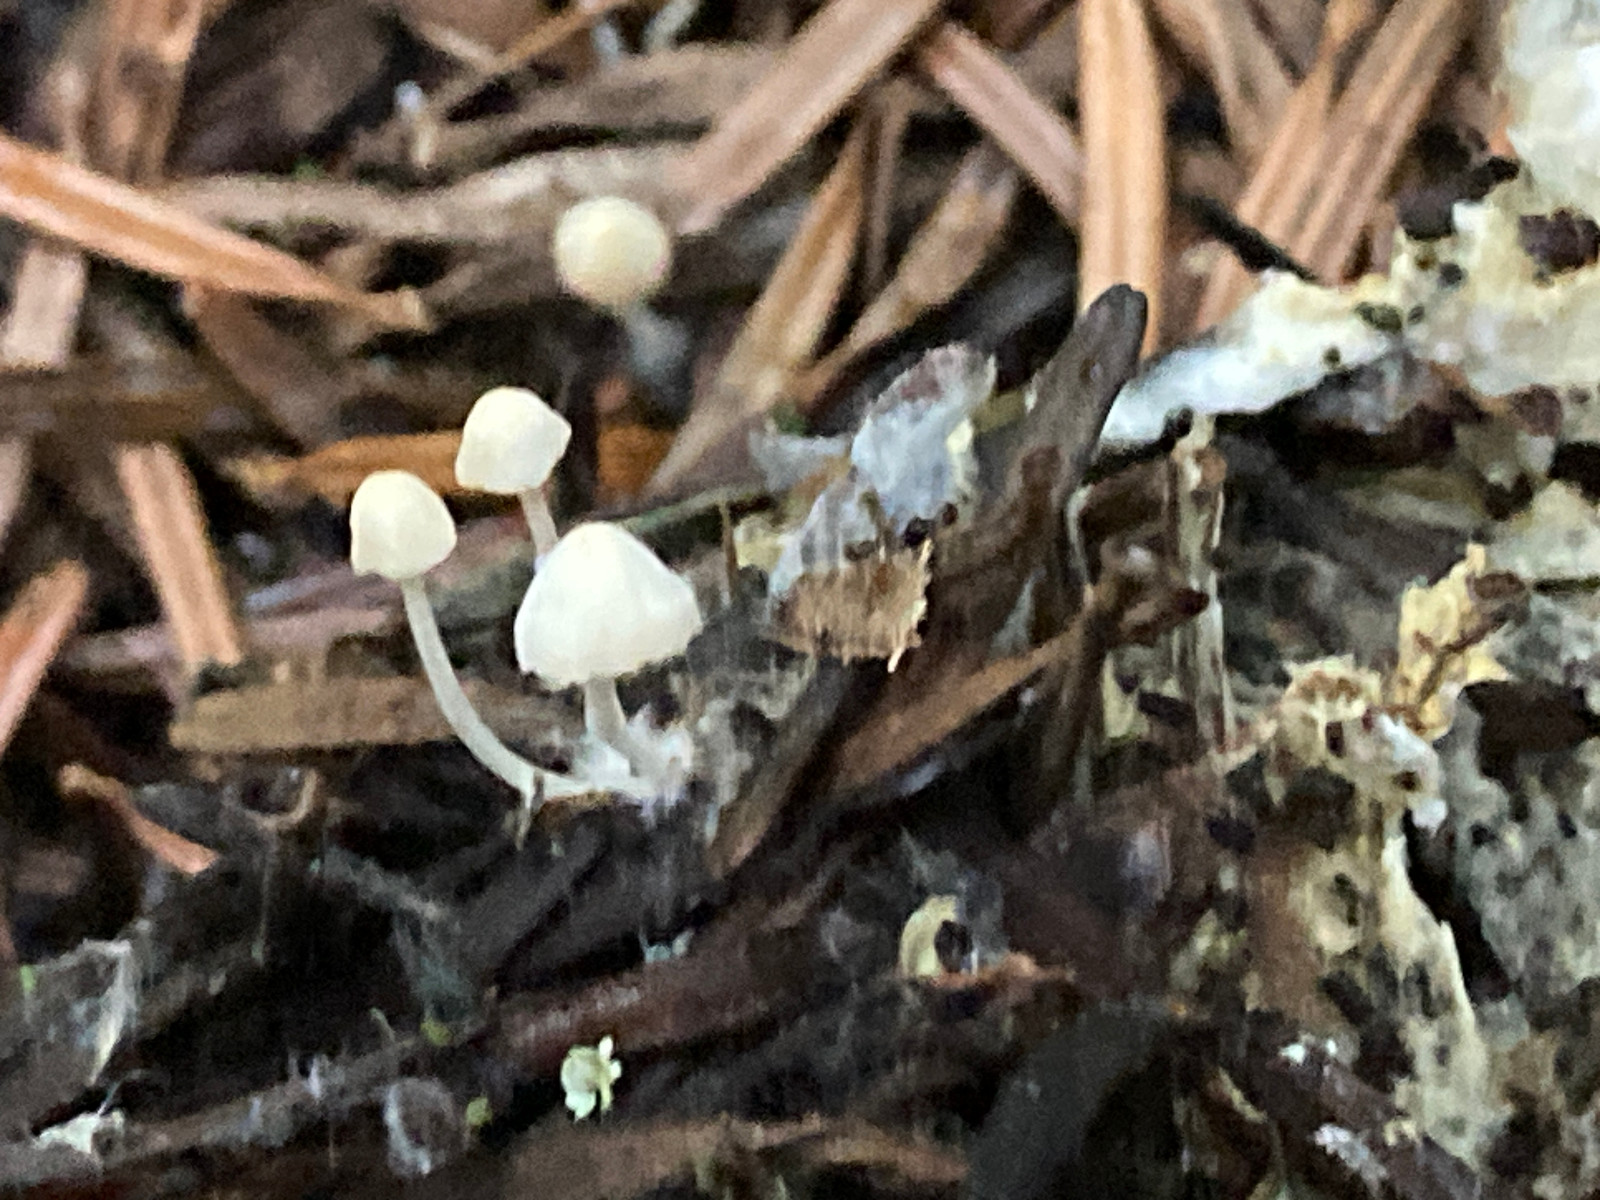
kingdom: Fungi
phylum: Basidiomycota
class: Agaricomycetes
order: Agaricales
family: Mycenaceae
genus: Hemimycena
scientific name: Hemimycena
